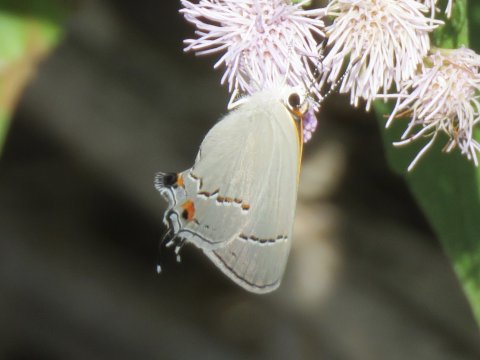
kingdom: Animalia
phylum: Arthropoda
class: Insecta
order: Lepidoptera
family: Lycaenidae
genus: Strymon
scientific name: Strymon melinus
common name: Gray Hairstreak
